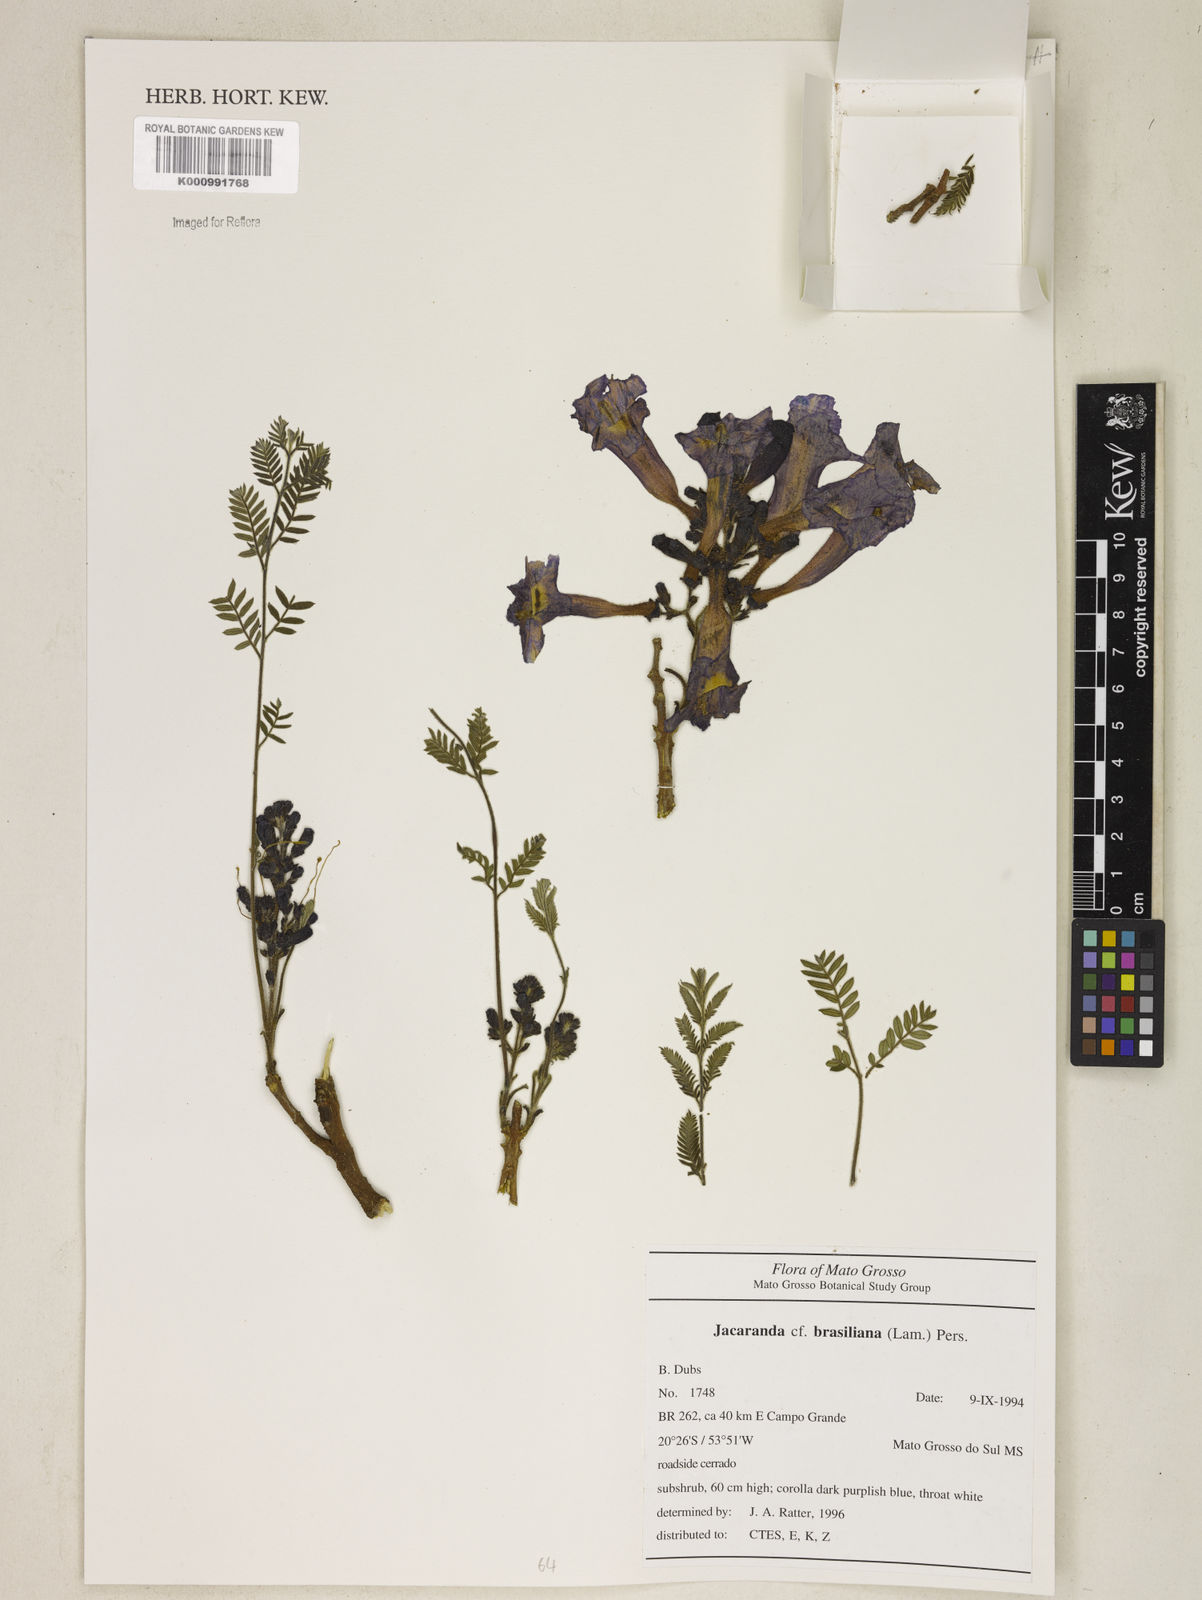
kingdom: Plantae
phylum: Tracheophyta
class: Magnoliopsida
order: Lamiales
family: Bignoniaceae
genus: Jacaranda
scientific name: Jacaranda brasiliana
